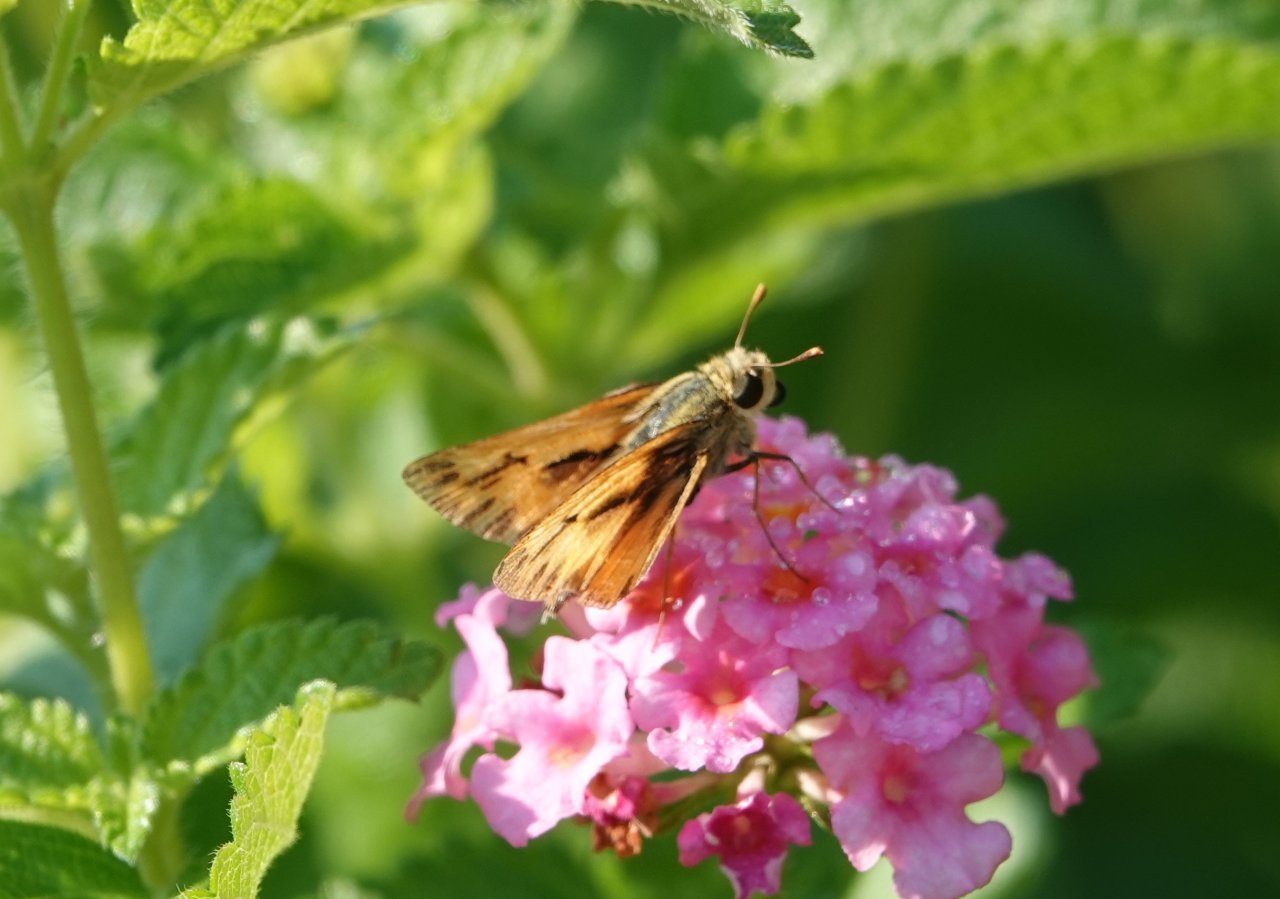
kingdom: Animalia
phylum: Arthropoda
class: Insecta
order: Lepidoptera
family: Hesperiidae
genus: Hylephila
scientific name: Hylephila phyleus
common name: Fiery Skipper
